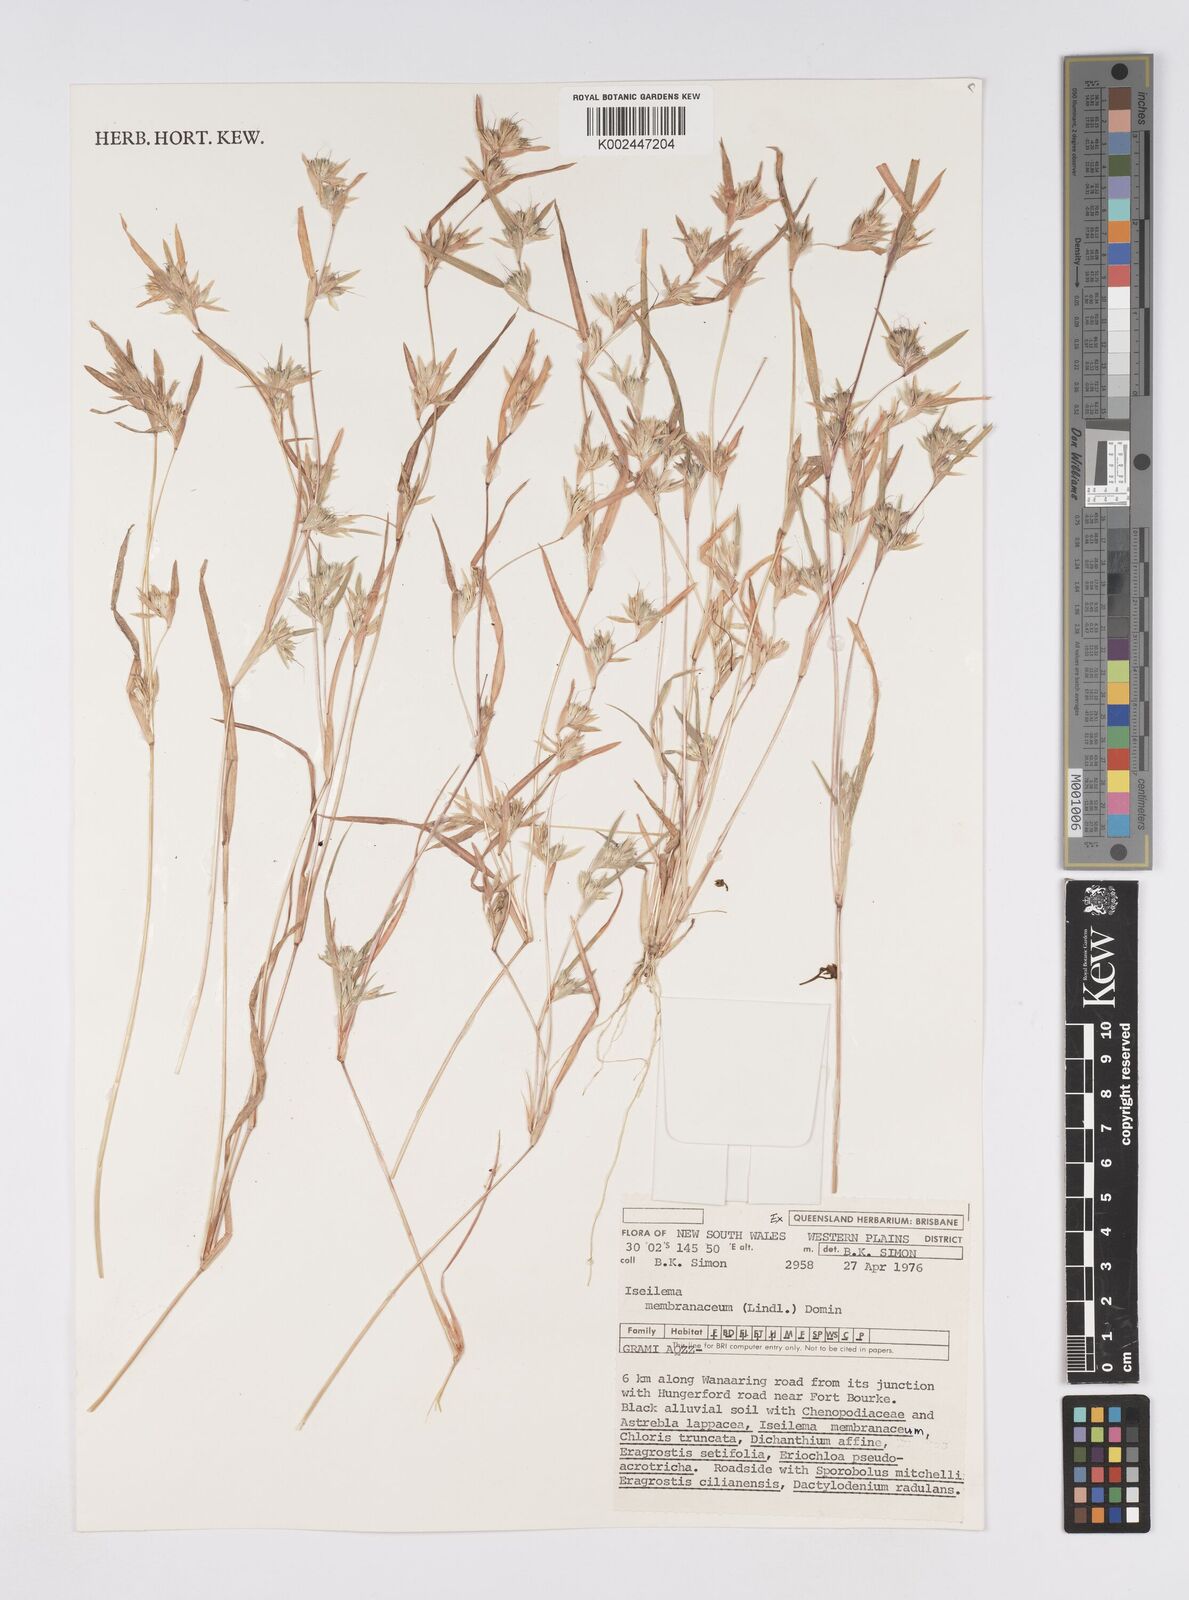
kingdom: Plantae
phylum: Tracheophyta
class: Liliopsida
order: Poales
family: Poaceae
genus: Iseilema
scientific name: Iseilema membranaceum
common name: Small flinders grass
